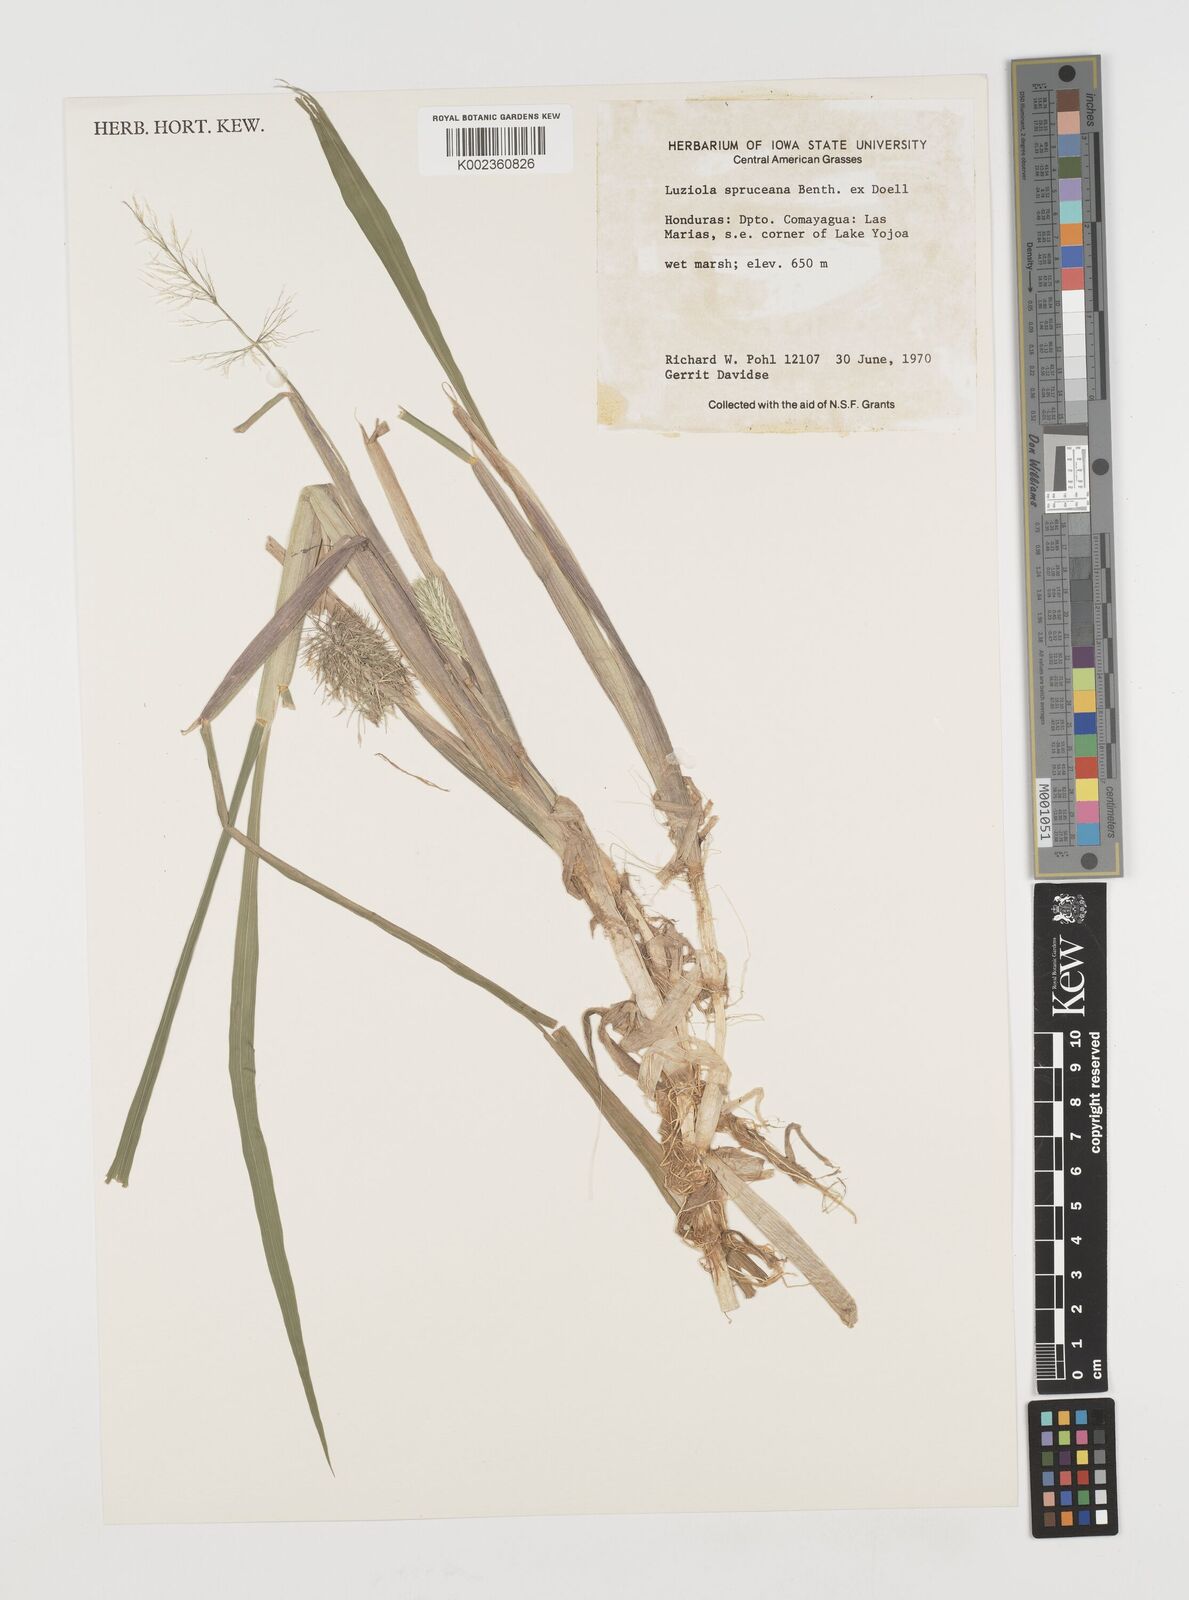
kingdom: Plantae
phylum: Tracheophyta
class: Liliopsida
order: Poales
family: Poaceae
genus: Luziola
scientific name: Luziola spruceana
